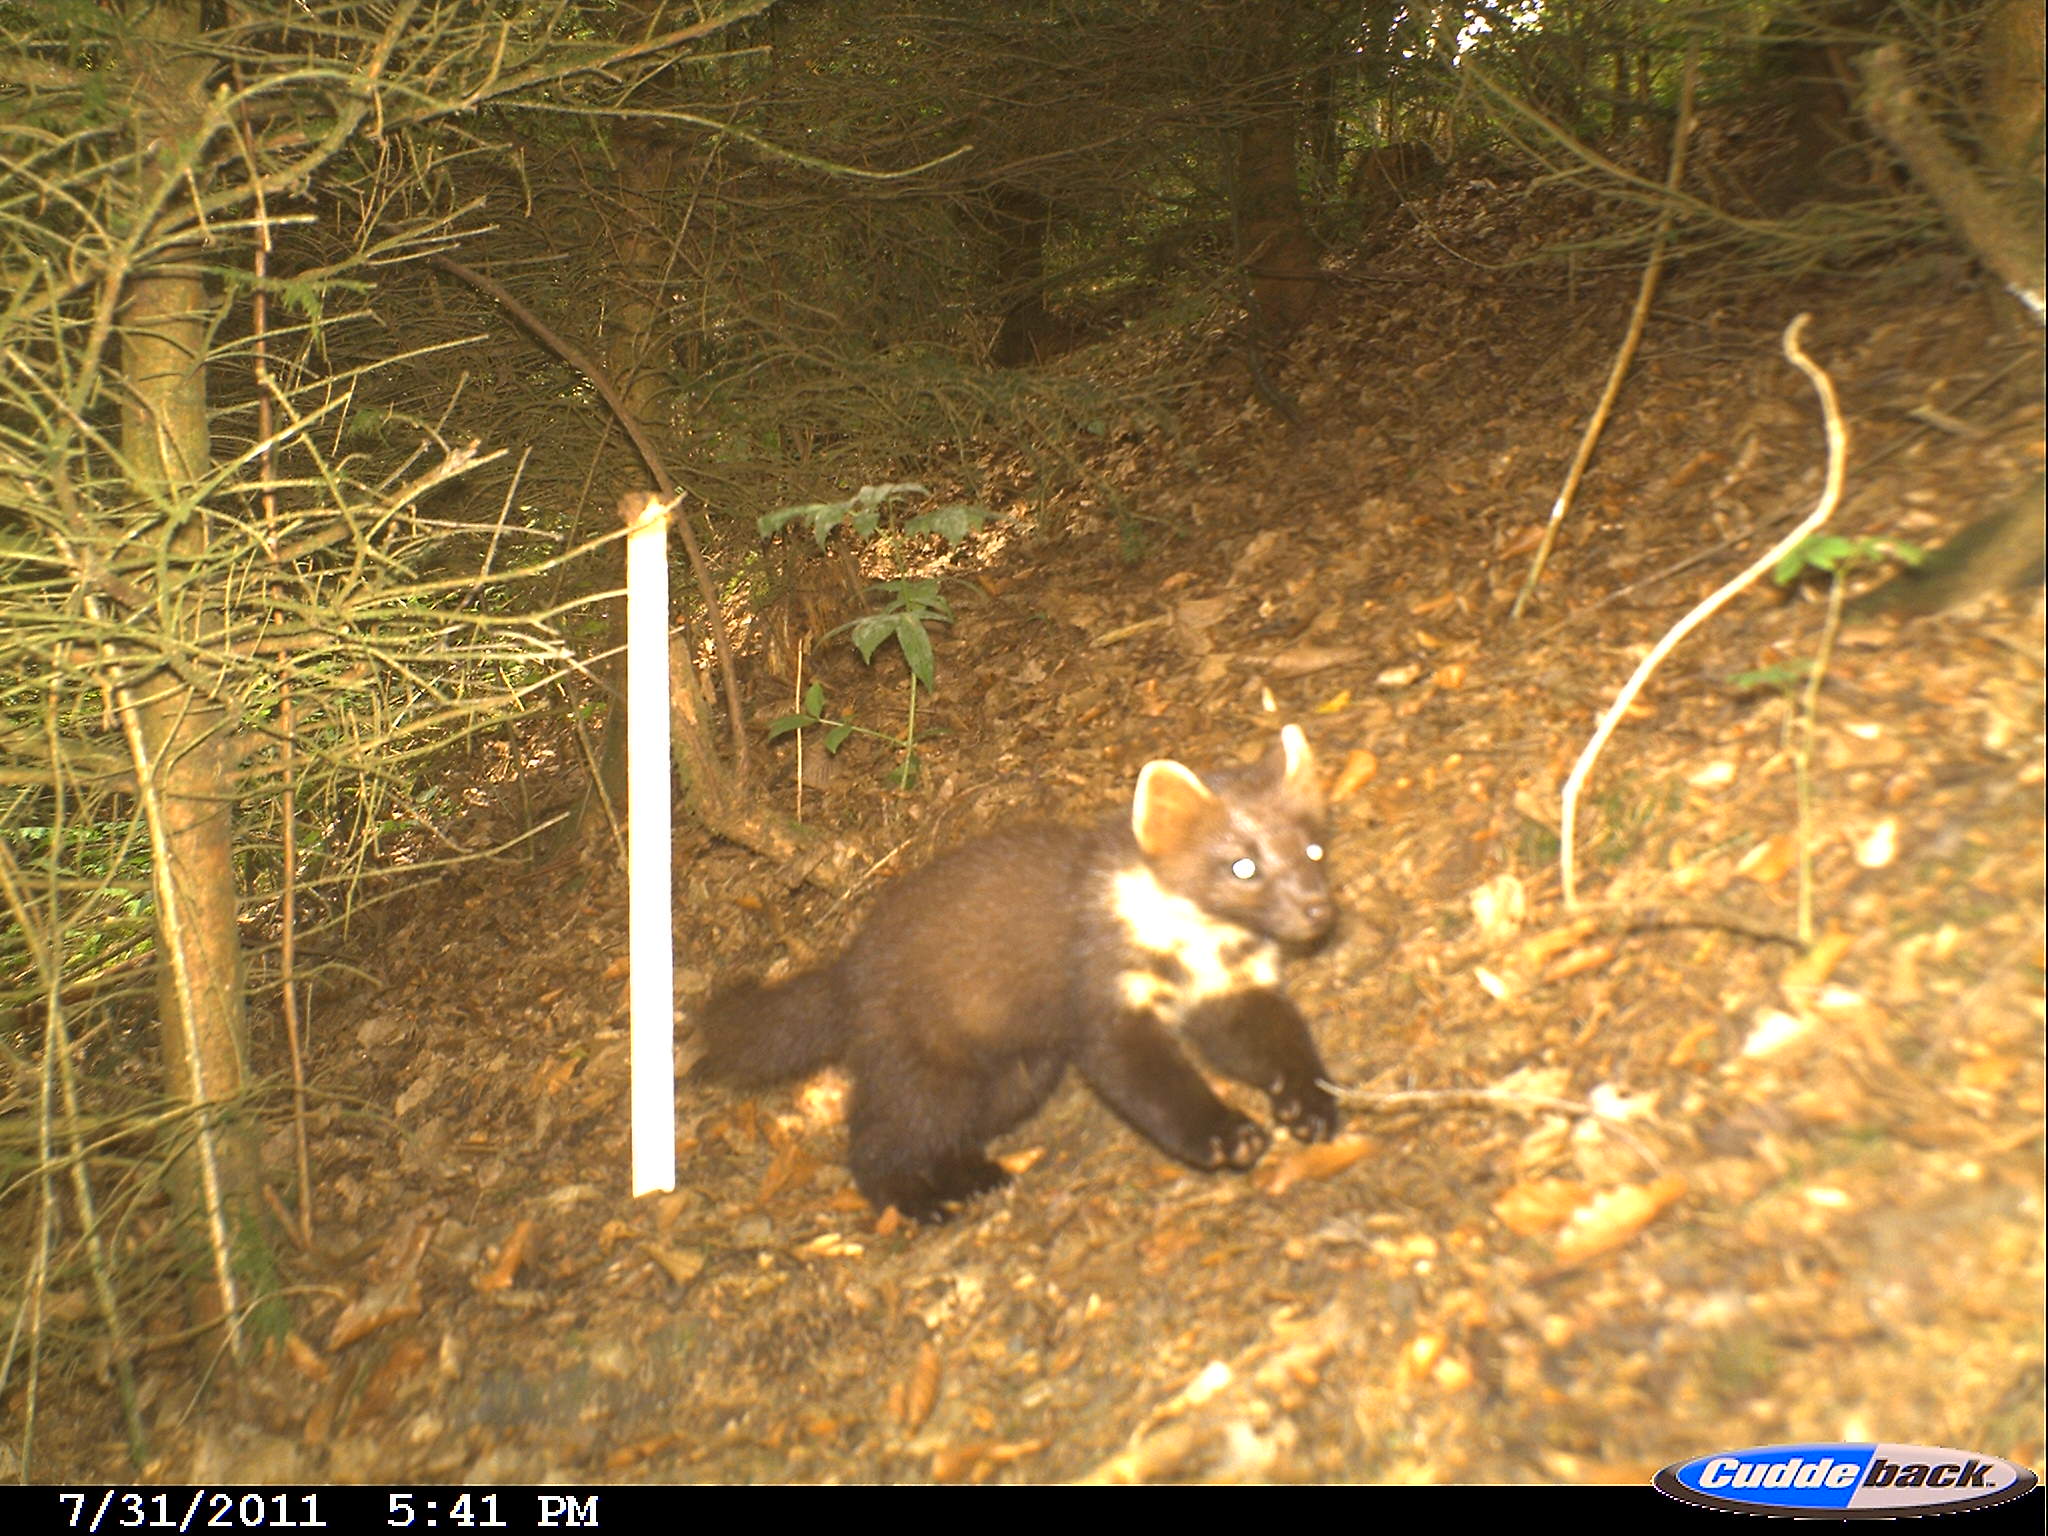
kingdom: Animalia
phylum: Chordata
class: Mammalia
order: Carnivora
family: Mustelidae
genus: Martes
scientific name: Martes martes
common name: European pine marten
